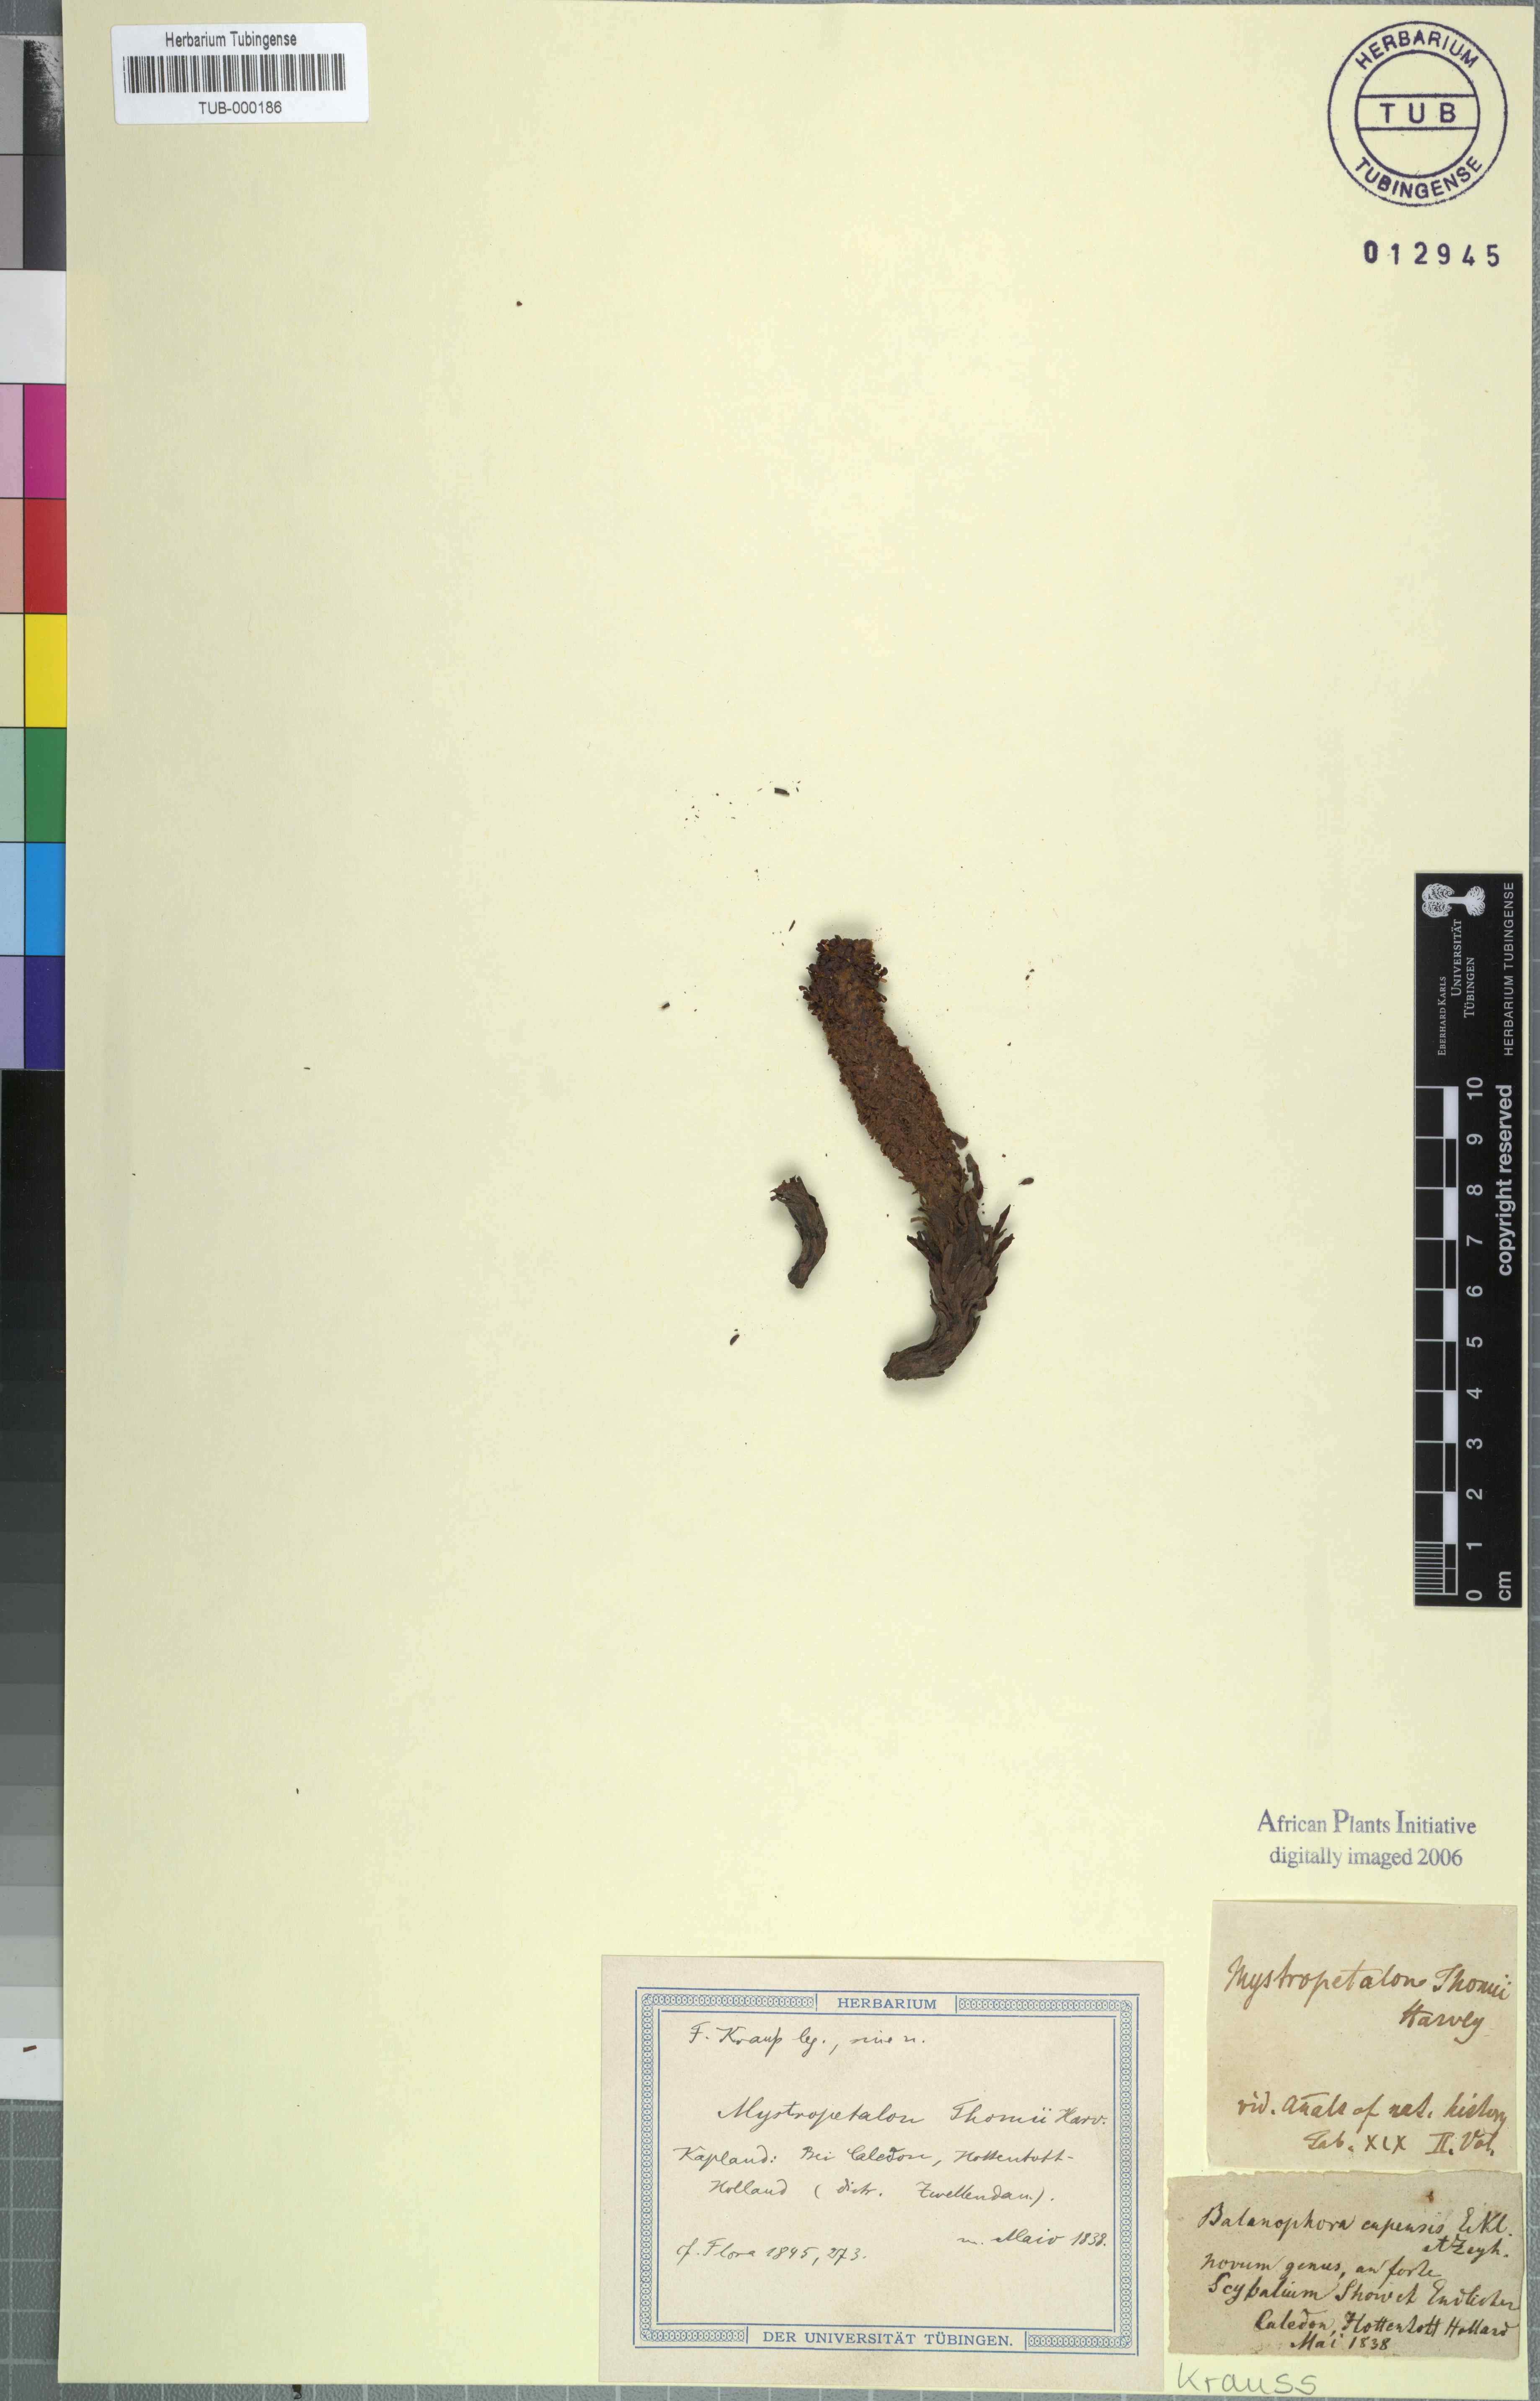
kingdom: Plantae
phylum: Tracheophyta
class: Magnoliopsida
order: Santalales
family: Mystropetalaceae
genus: Mystropetalon
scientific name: Mystropetalon thomii
